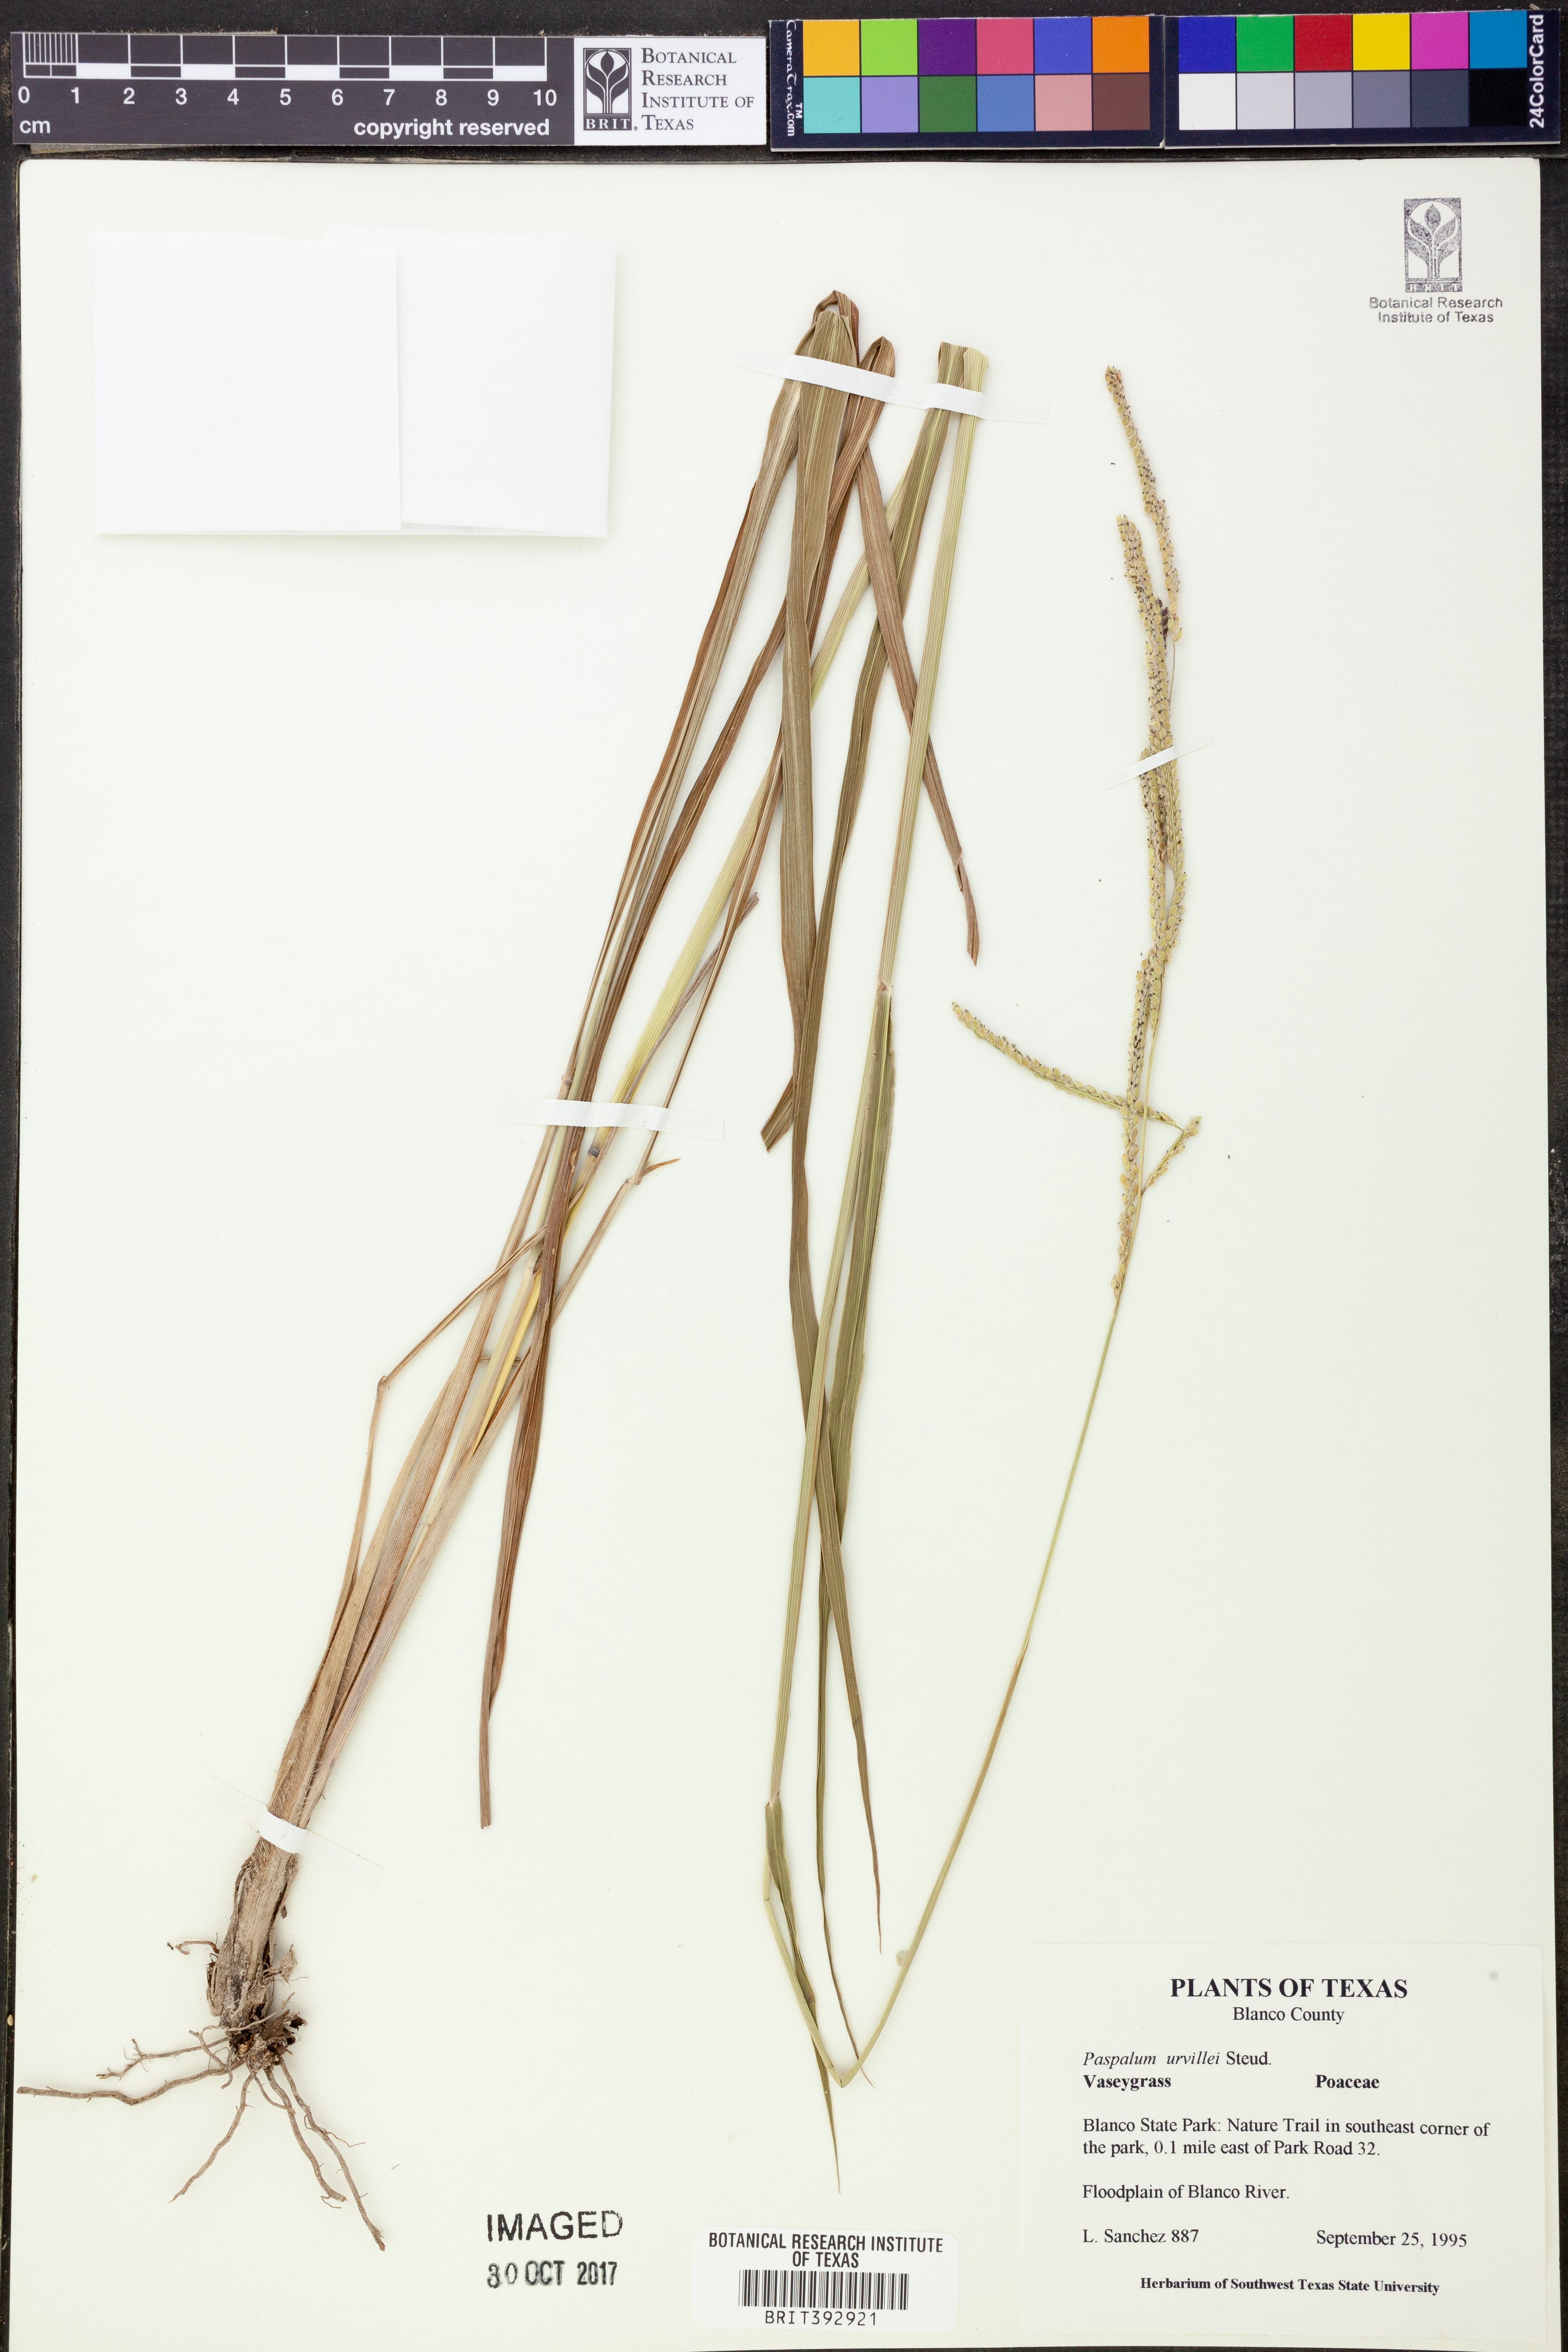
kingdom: Plantae
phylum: Tracheophyta
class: Liliopsida
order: Poales
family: Poaceae
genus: Paspalum
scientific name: Paspalum urvillei
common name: Vasey's grass
